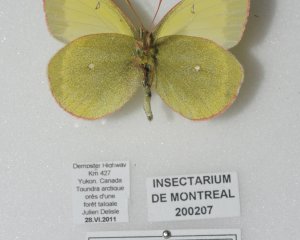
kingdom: Animalia
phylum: Arthropoda
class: Insecta
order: Lepidoptera
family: Pieridae
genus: Colias
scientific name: Colias palaeno
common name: Chippewa Sulphur
